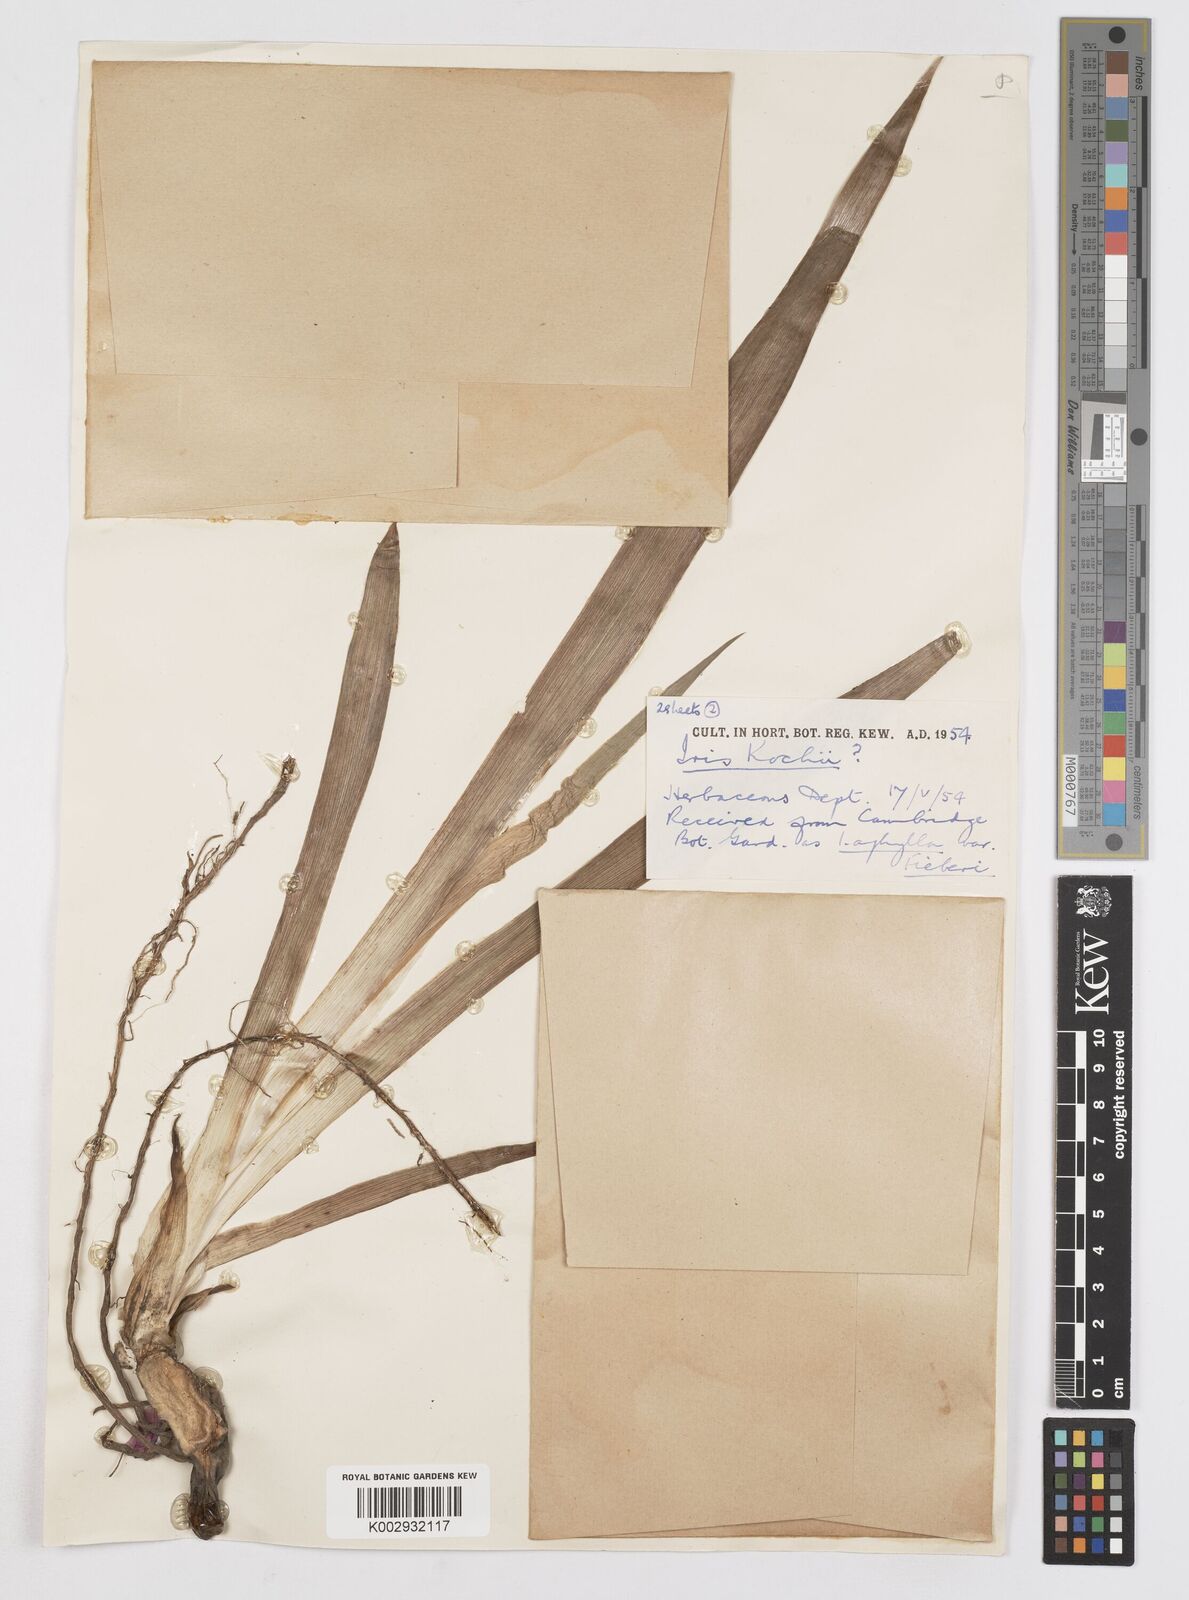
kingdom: Plantae
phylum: Tracheophyta
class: Liliopsida
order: Asparagales
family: Iridaceae
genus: Iris
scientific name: Iris kochii
